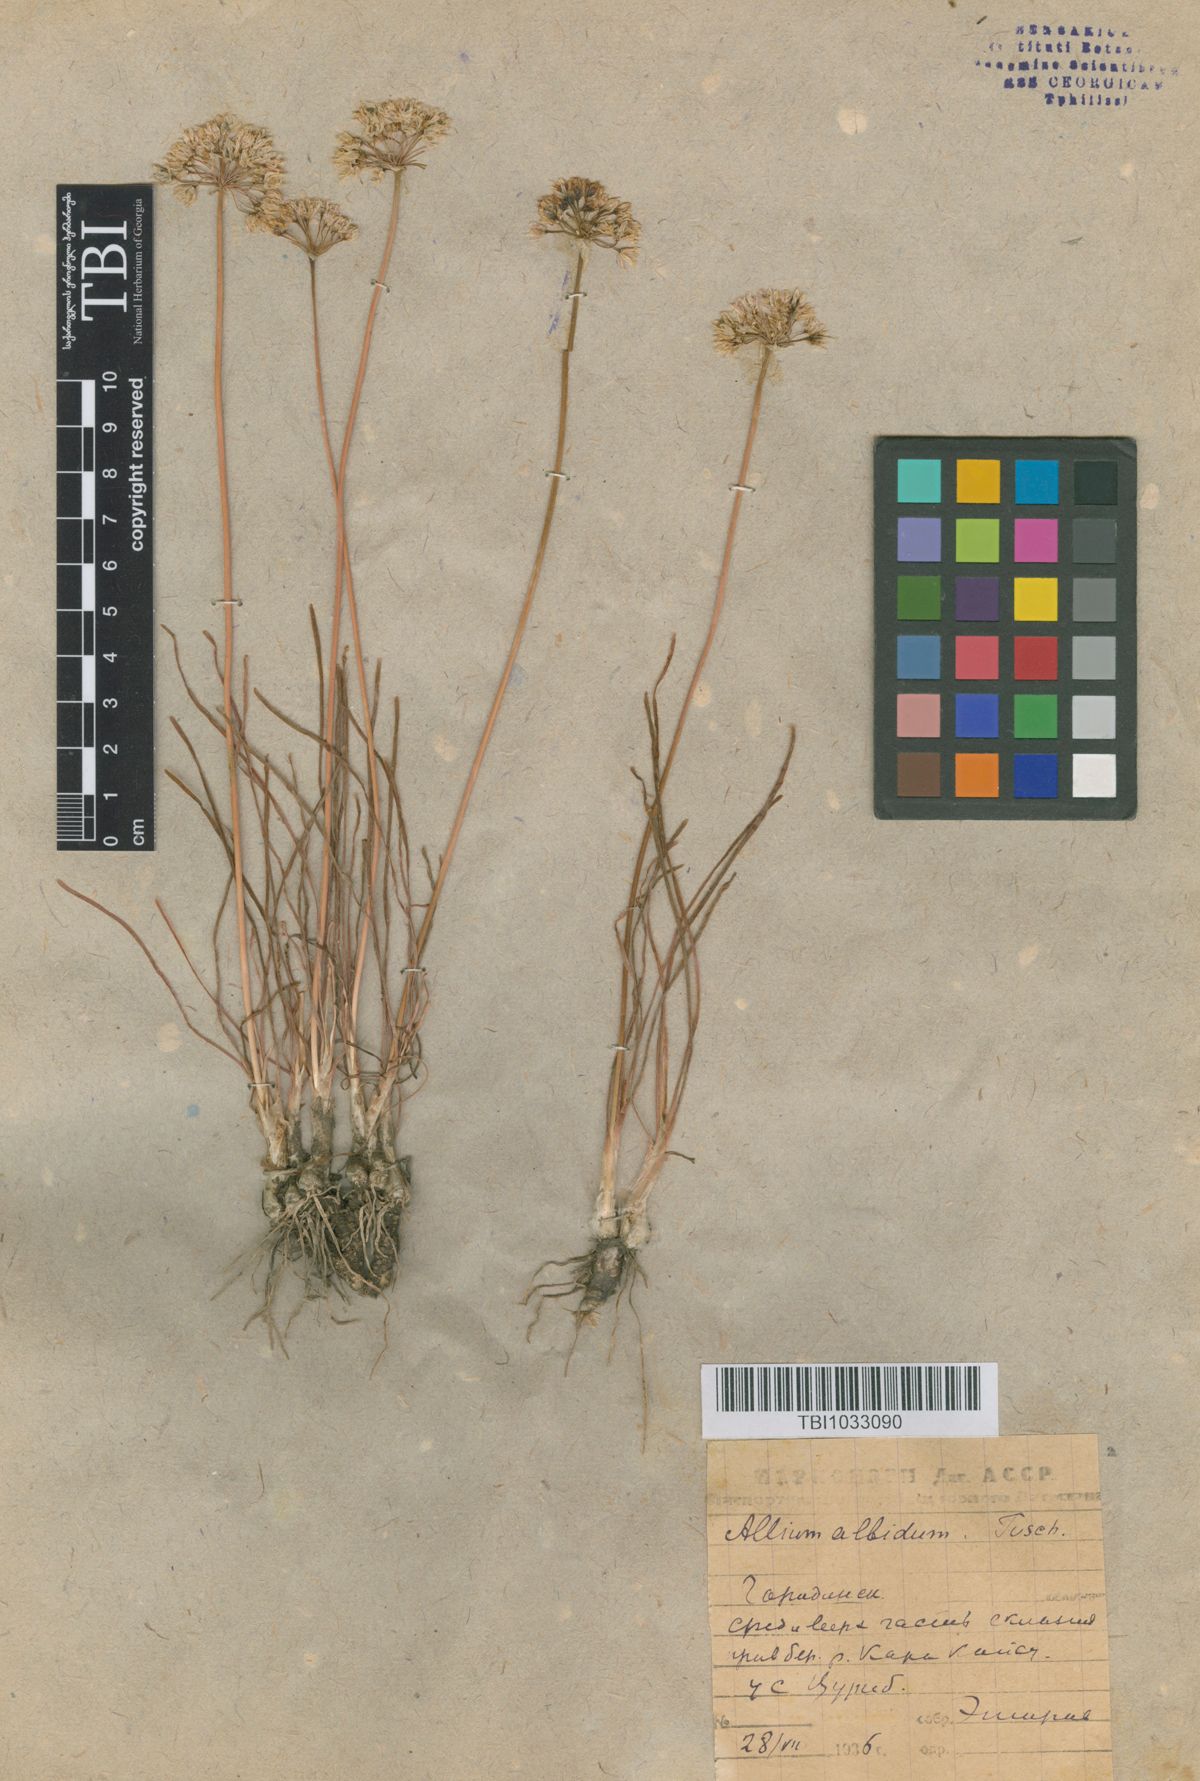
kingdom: Plantae
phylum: Tracheophyta
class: Liliopsida
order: Asparagales
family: Amaryllidaceae
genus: Allium
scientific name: Allium denudatum
